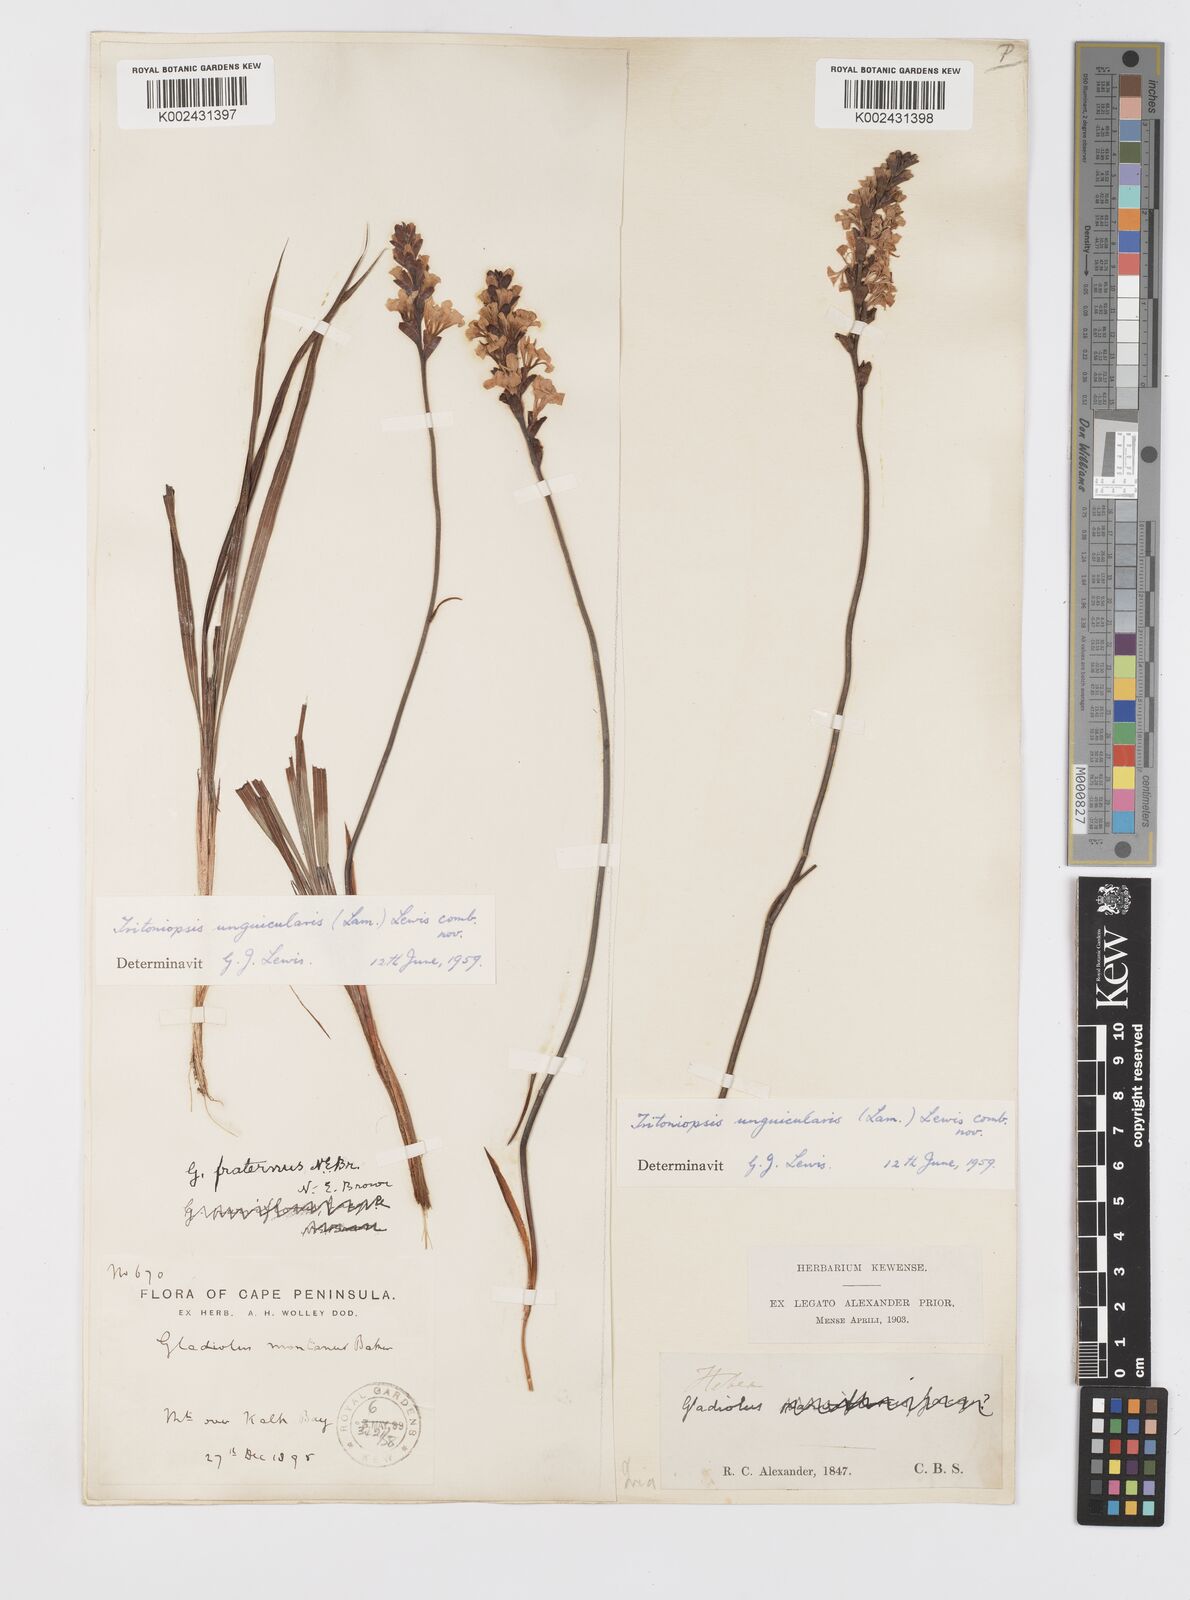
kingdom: Plantae
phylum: Tracheophyta
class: Liliopsida
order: Asparagales
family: Iridaceae
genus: Tritoniopsis
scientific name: Tritoniopsis unguicularis
